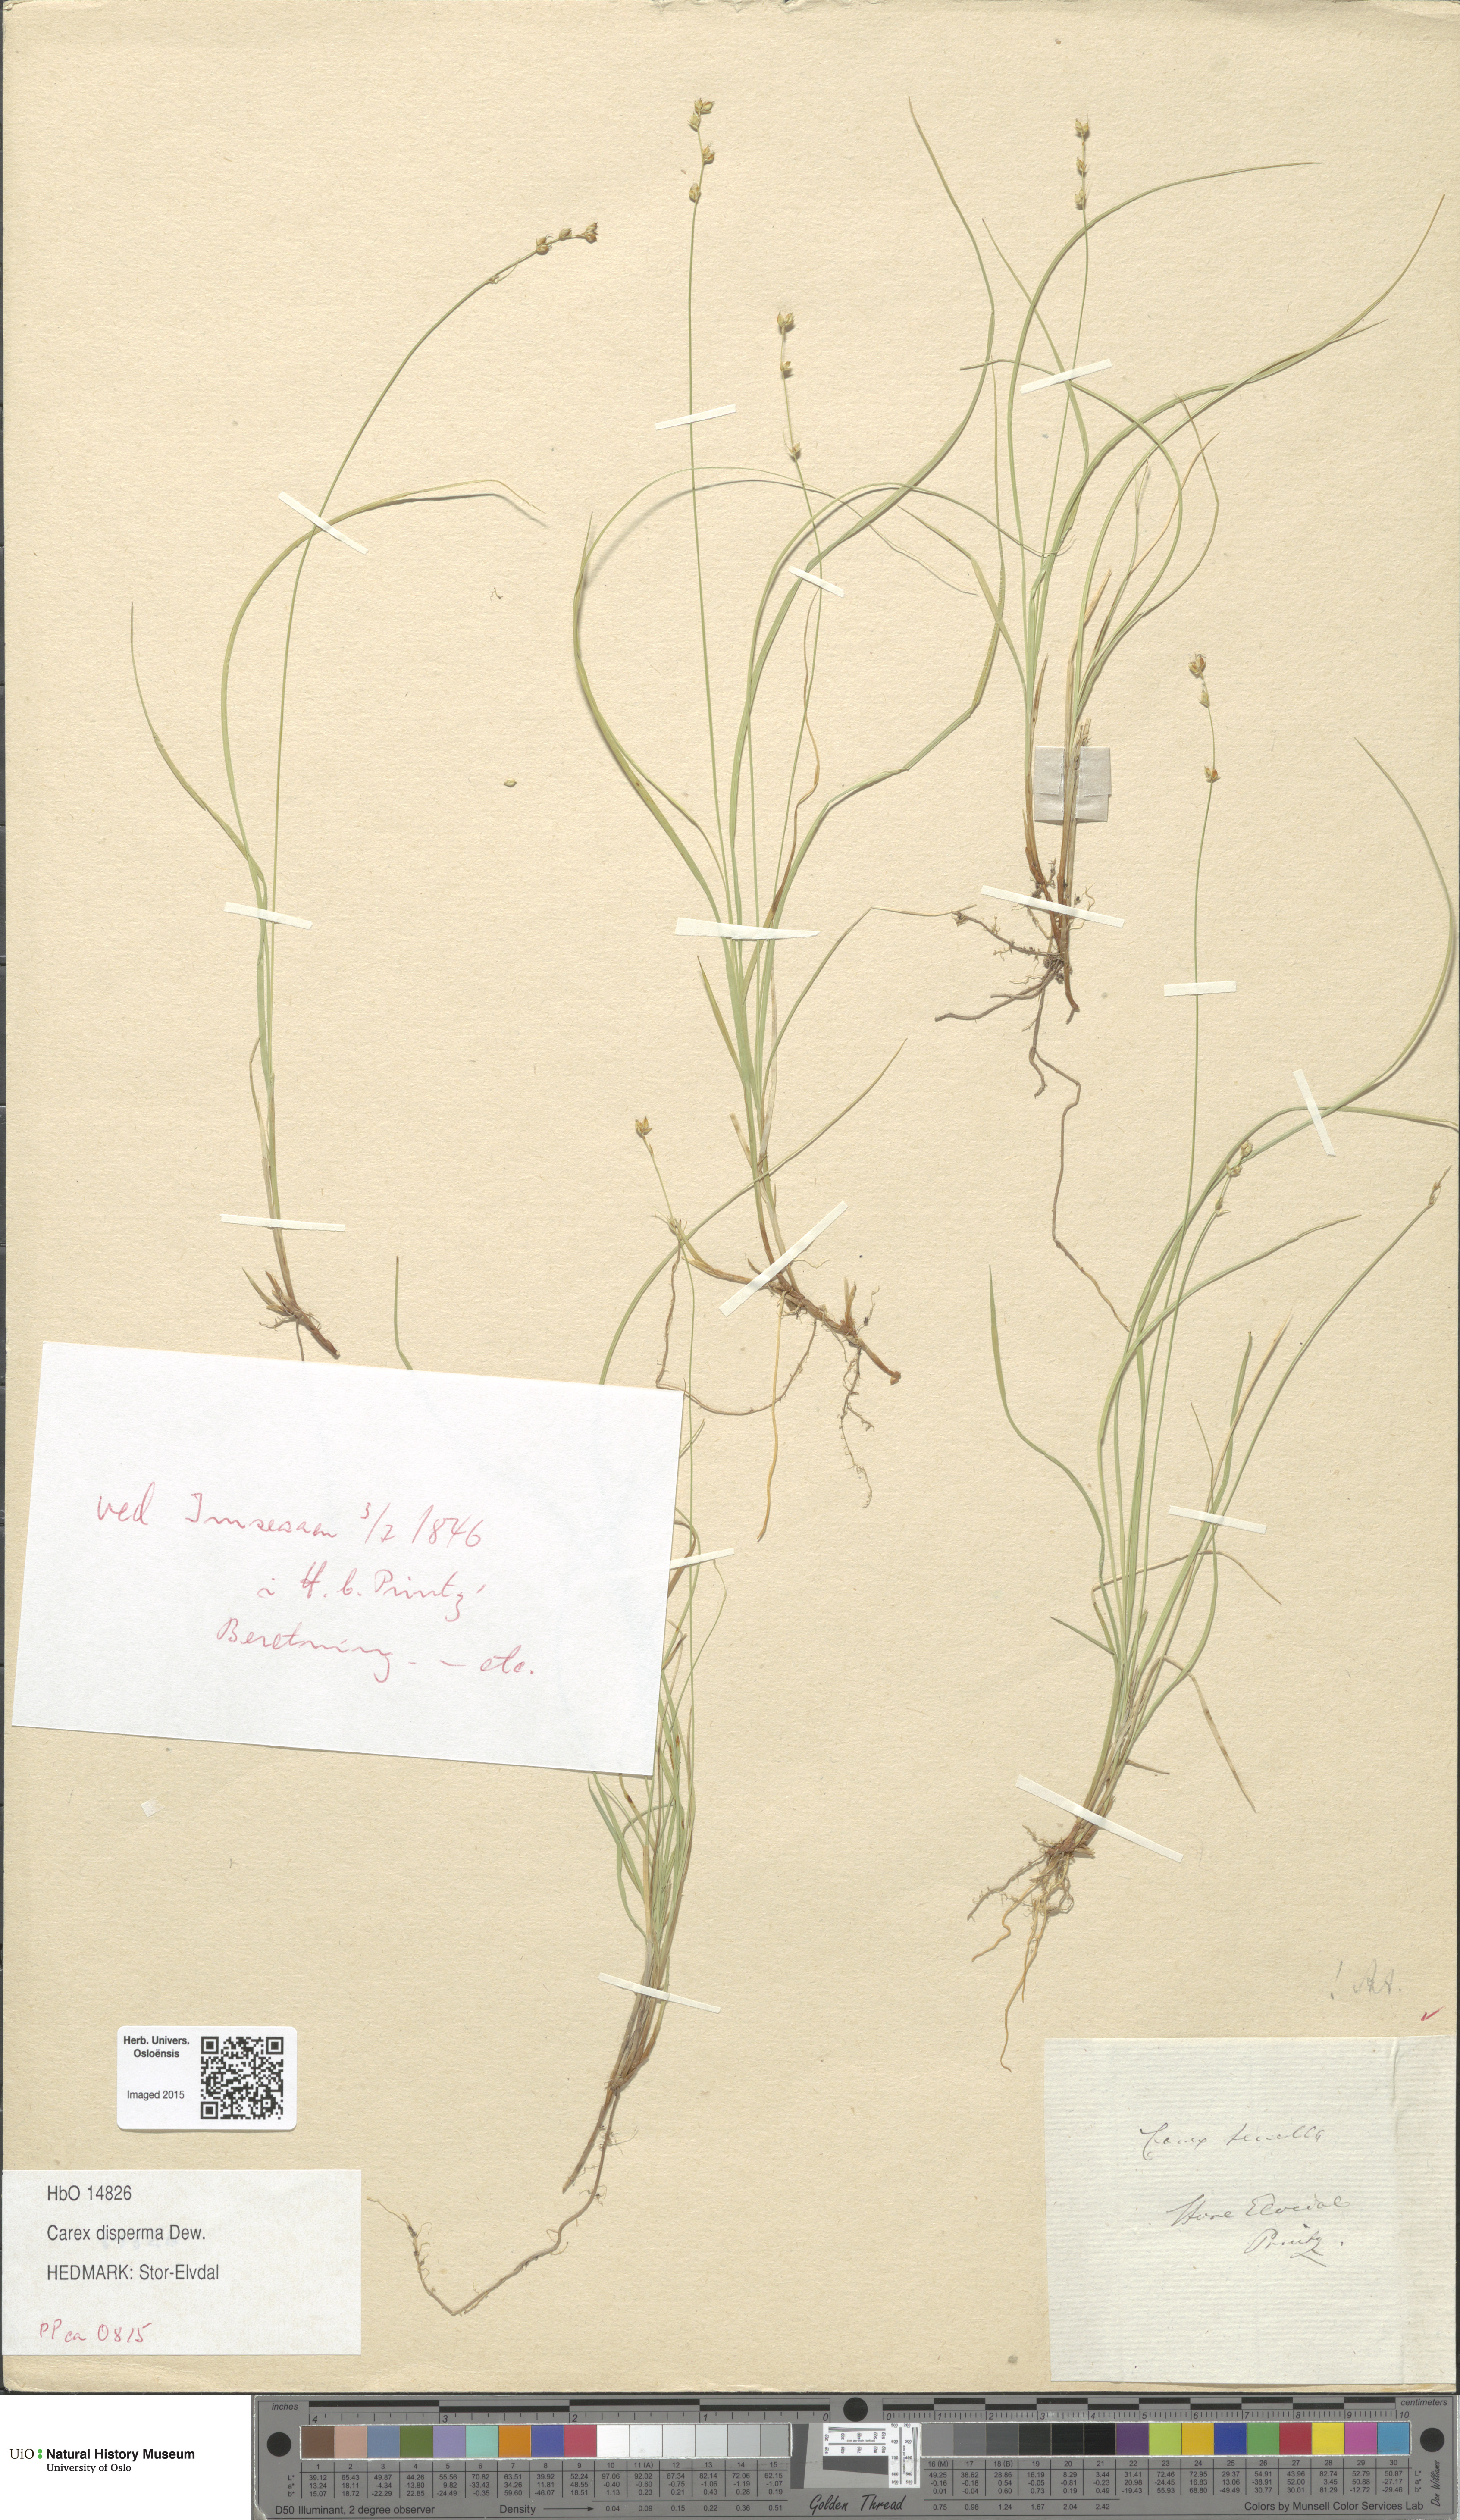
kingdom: Plantae
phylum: Tracheophyta
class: Liliopsida
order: Poales
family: Cyperaceae
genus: Carex
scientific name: Carex disperma
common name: Short-leaved sedge
